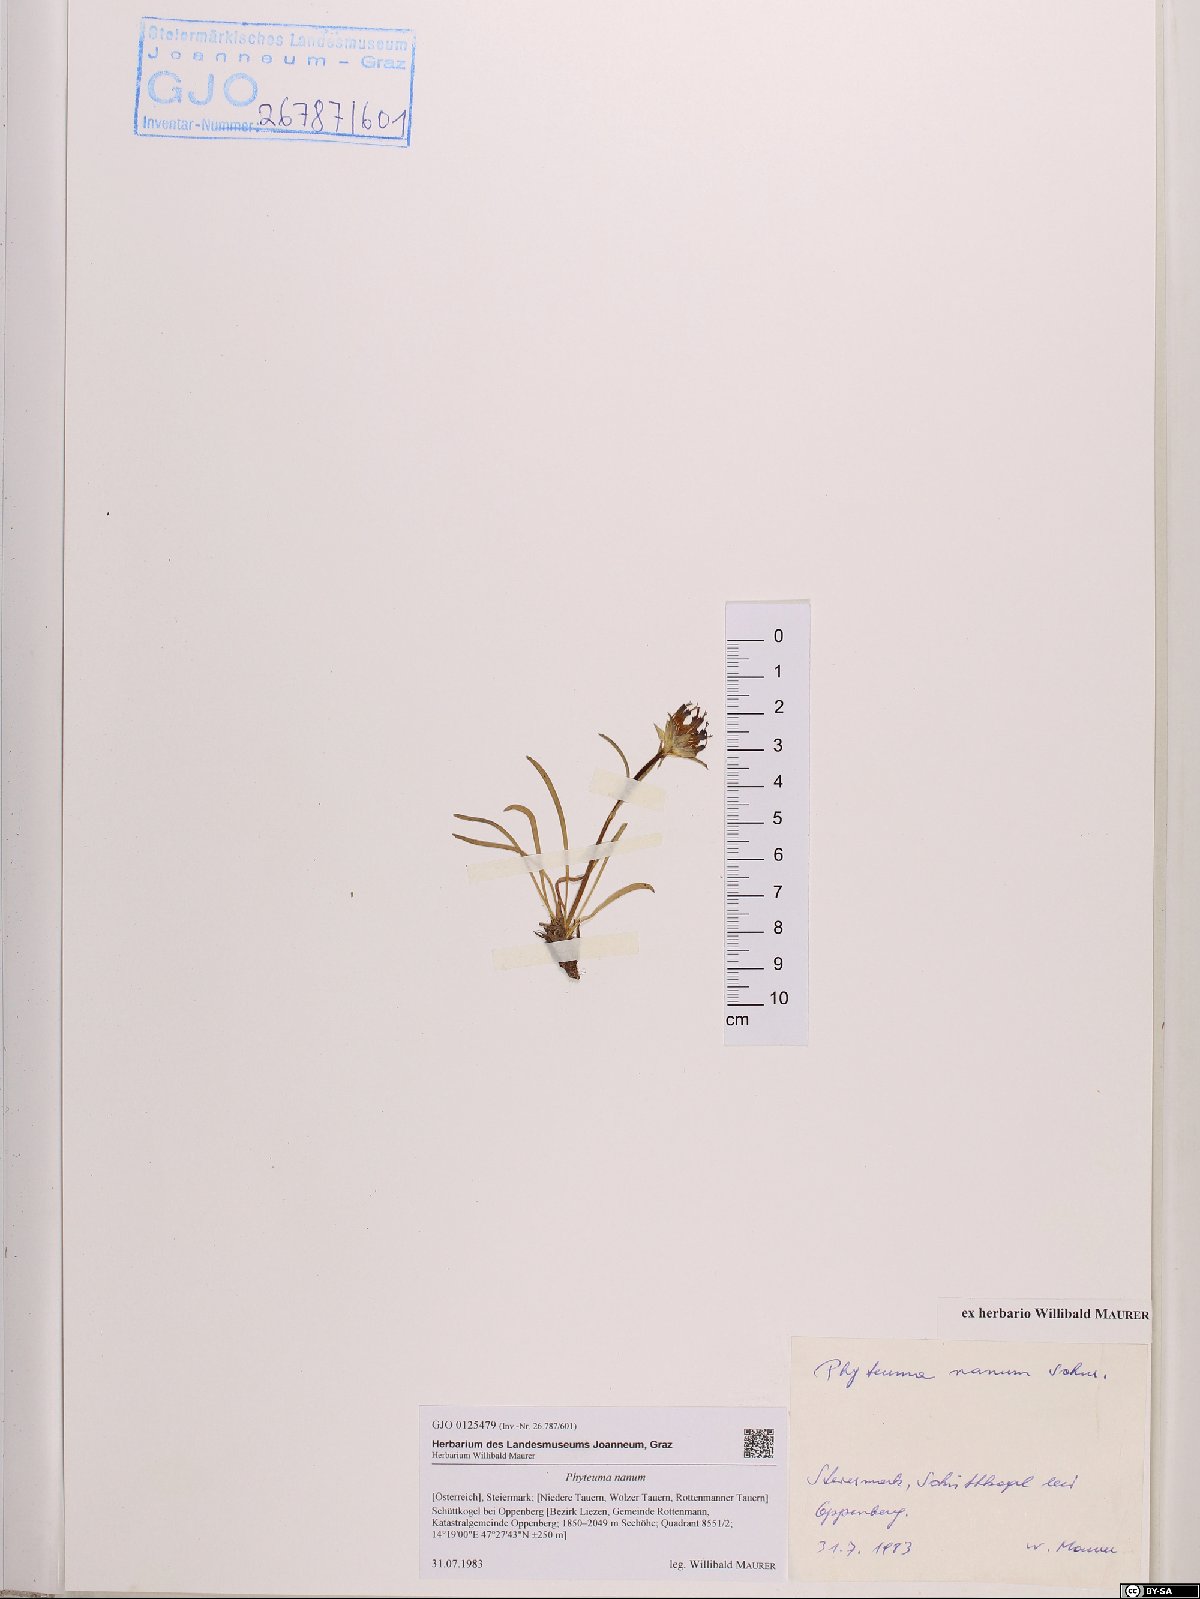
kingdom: Plantae
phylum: Tracheophyta
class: Magnoliopsida
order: Asterales
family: Campanulaceae
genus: Phyteuma
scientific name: Phyteuma globulariifolium
